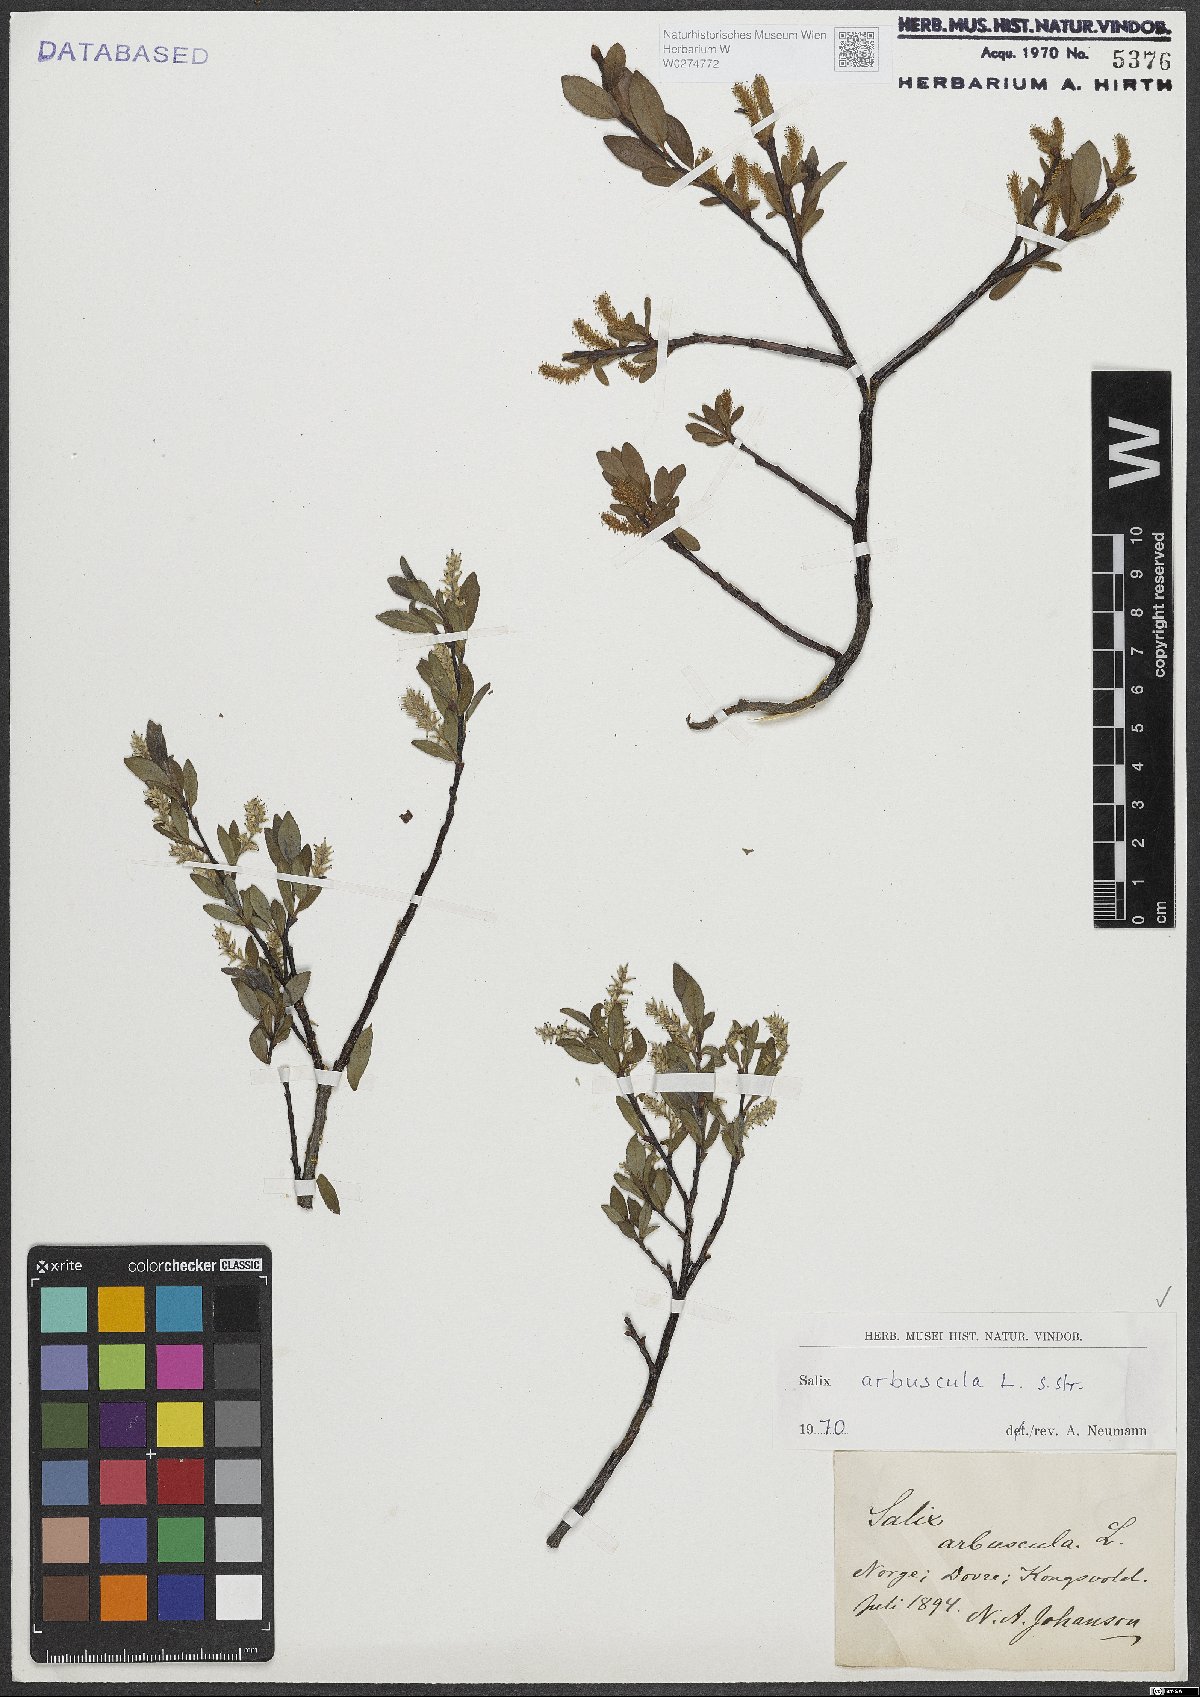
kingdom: Plantae
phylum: Tracheophyta
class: Magnoliopsida
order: Malpighiales
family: Salicaceae
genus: Salix
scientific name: Salix arbuscula
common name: Mountain willow
